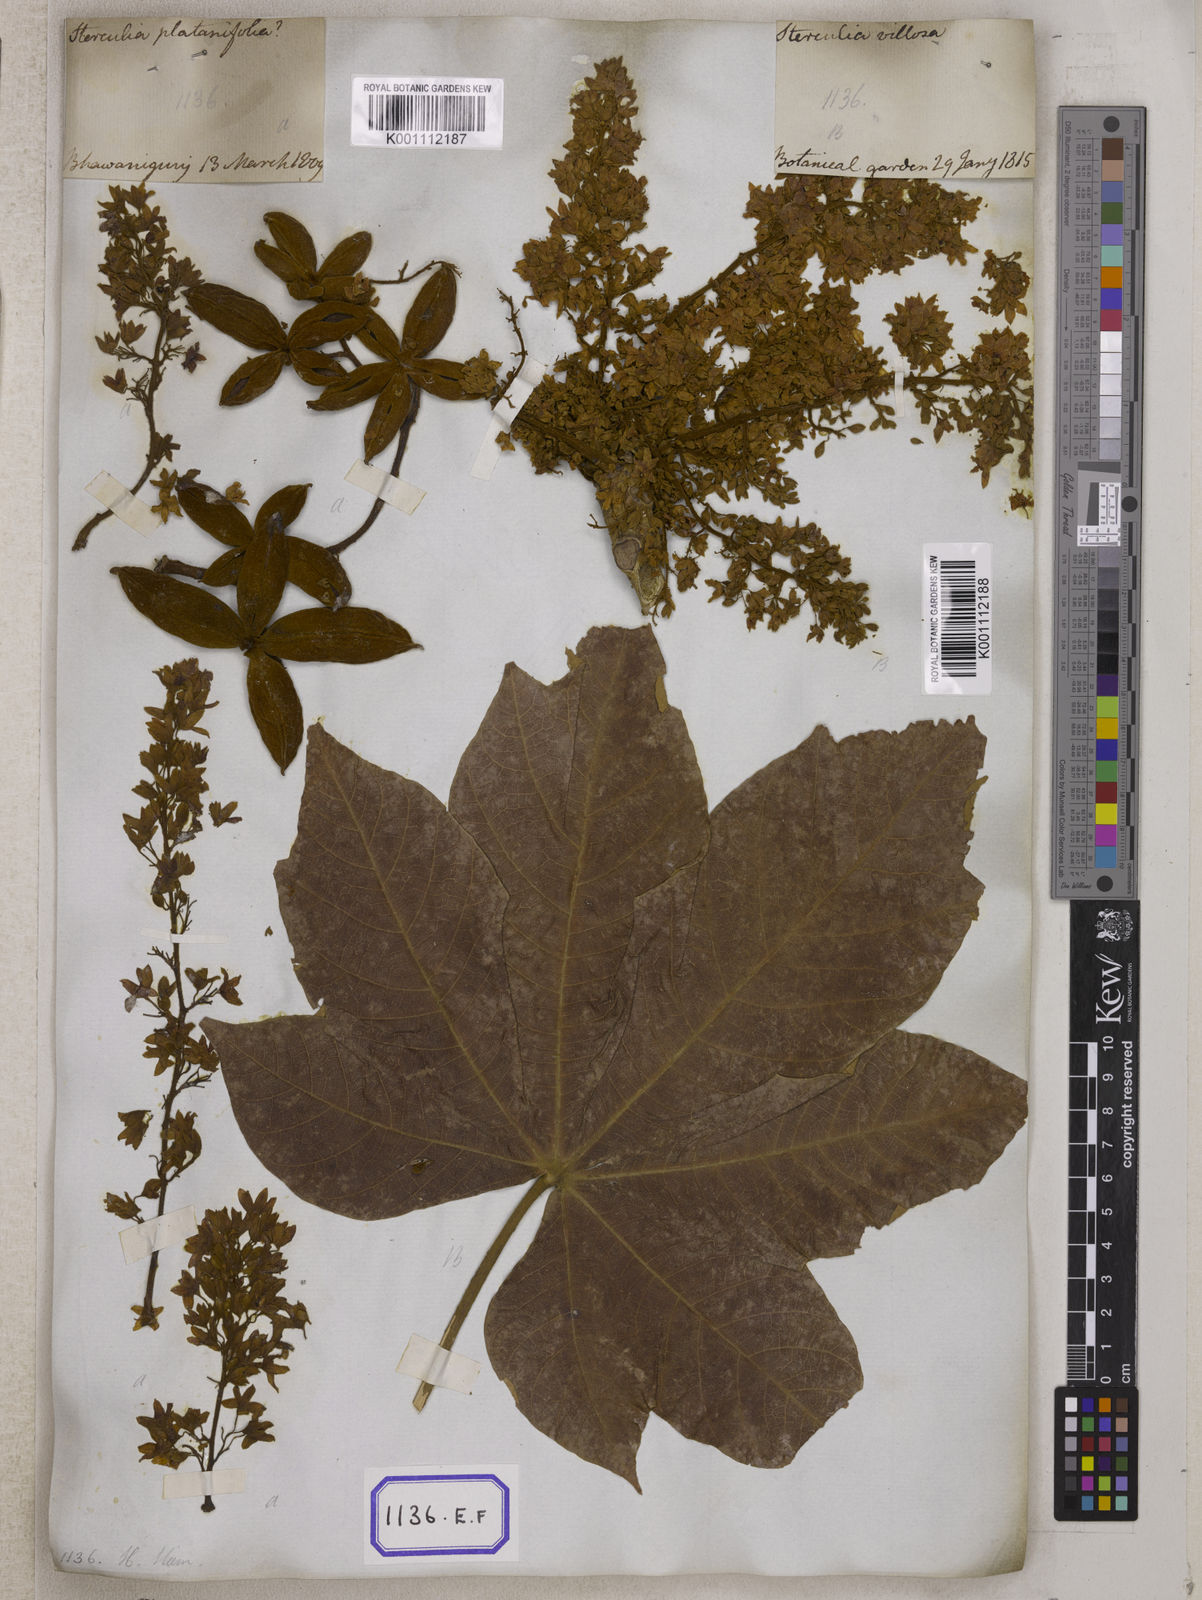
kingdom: Plantae
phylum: Tracheophyta
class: Magnoliopsida
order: Malvales
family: Malvaceae
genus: Sterculia
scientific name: Sterculia
